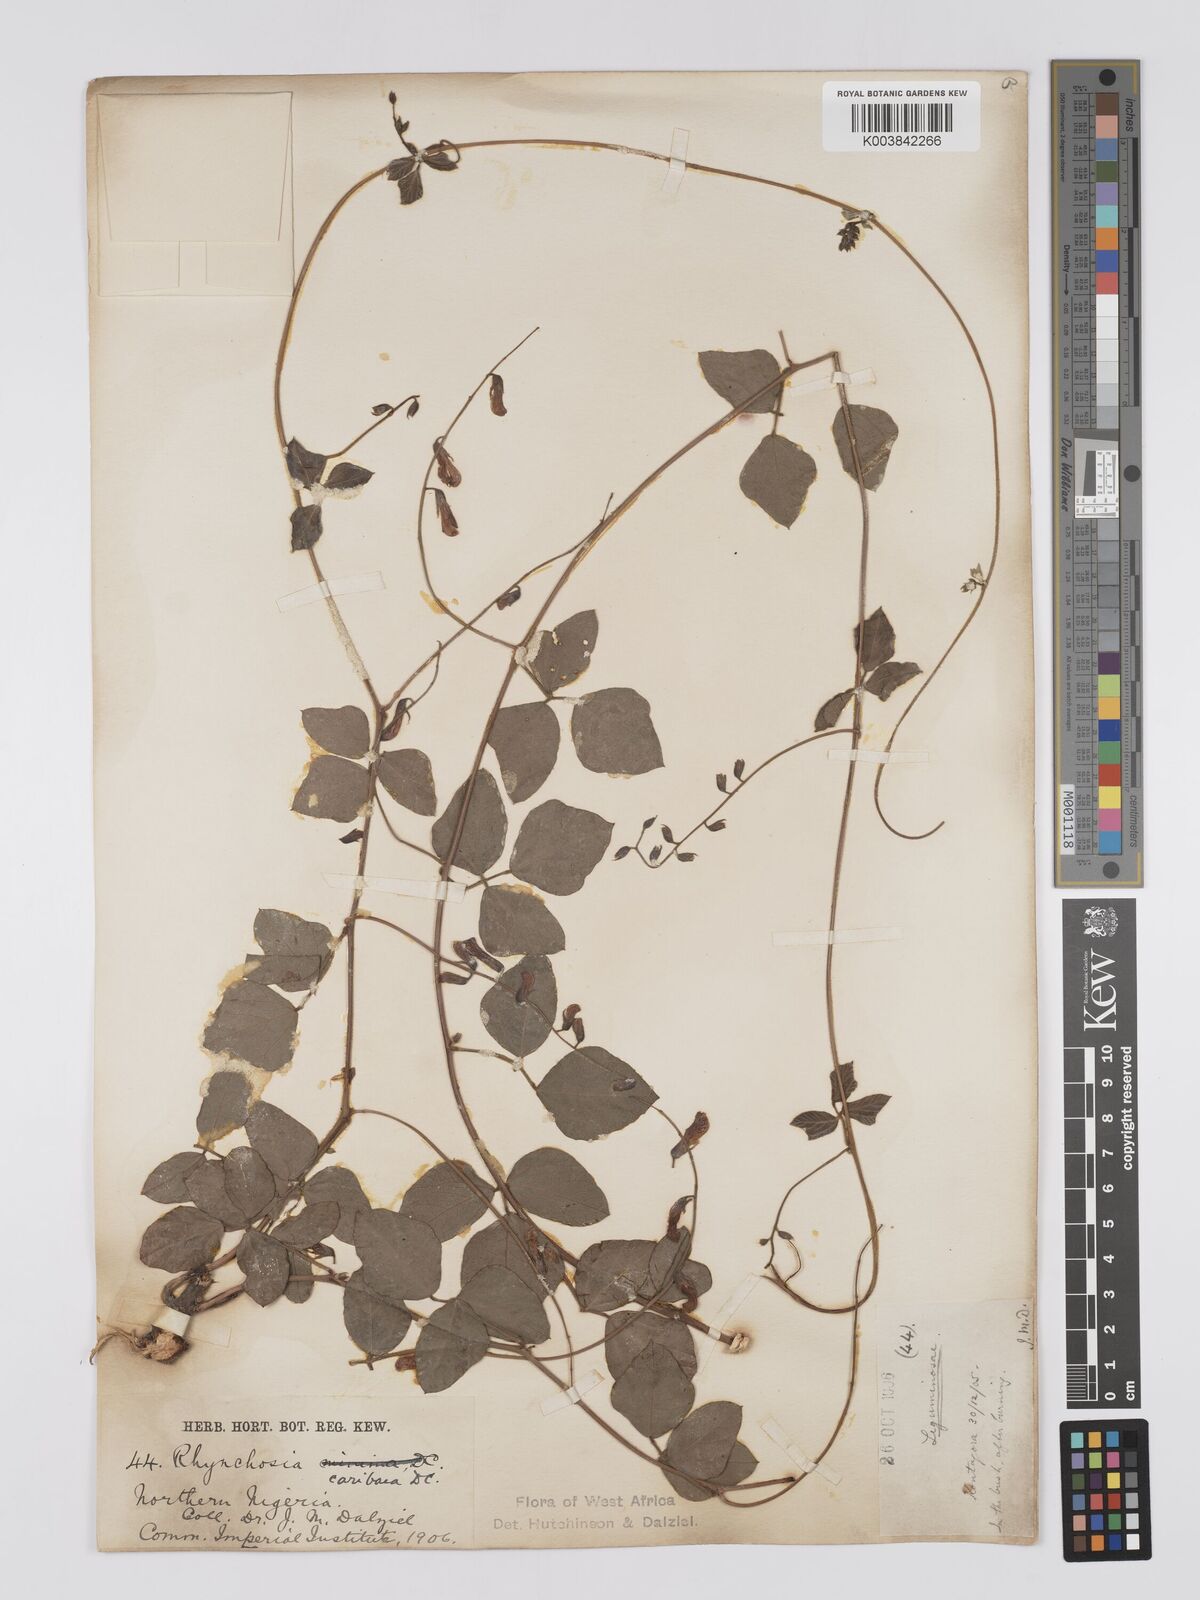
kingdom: Plantae
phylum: Tracheophyta
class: Magnoliopsida
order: Fabales
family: Fabaceae
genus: Rhynchosia
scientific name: Rhynchosia sublobata
